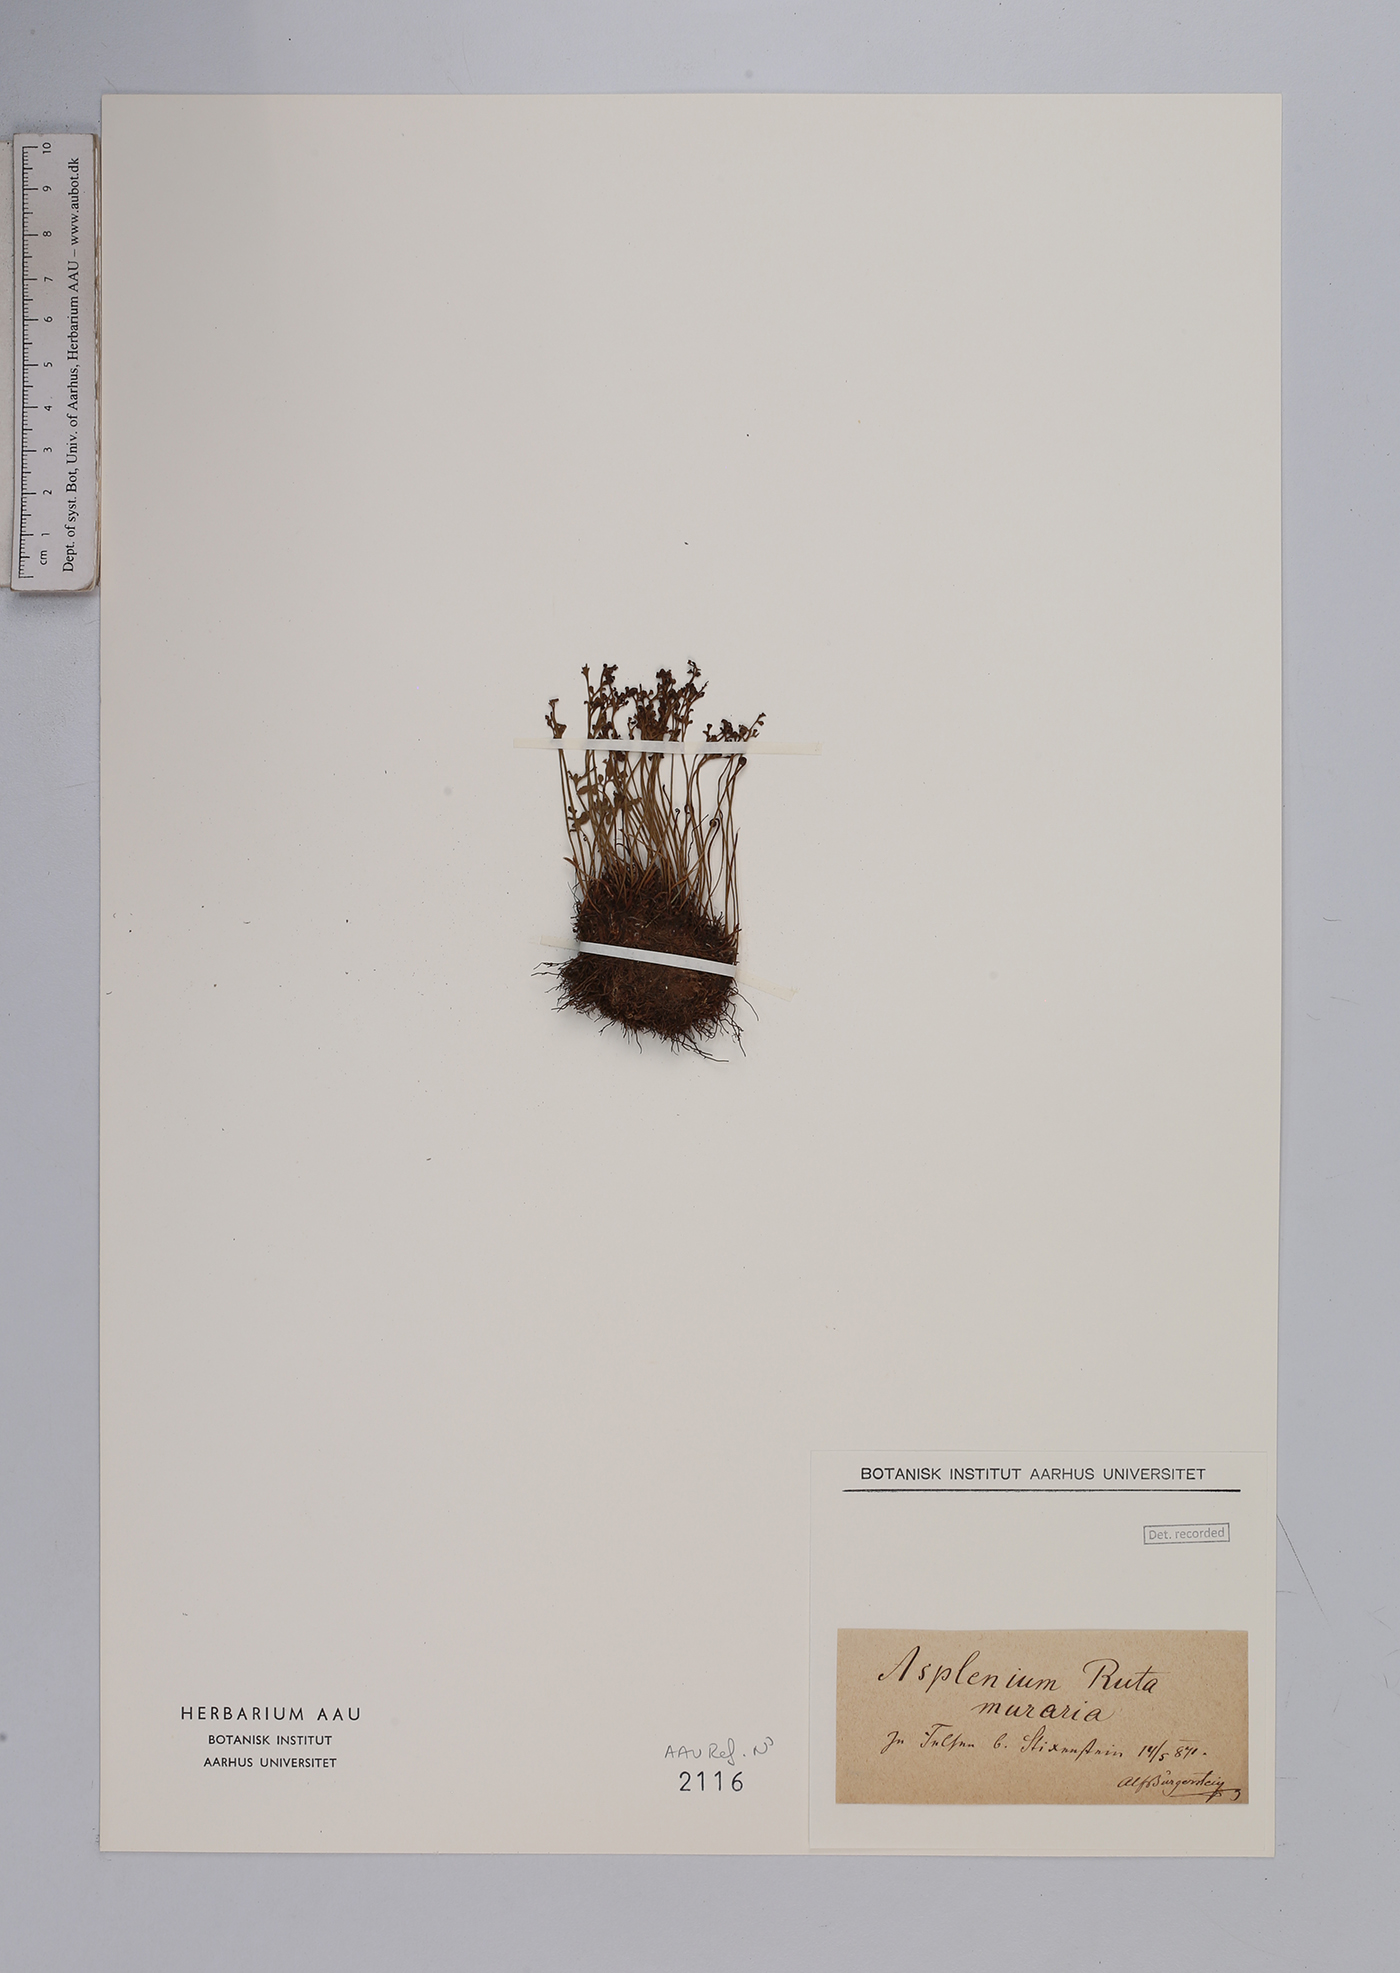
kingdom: Plantae
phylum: Tracheophyta
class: Polypodiopsida
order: Polypodiales
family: Aspleniaceae
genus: Asplenium
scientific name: Asplenium ruta-muraria
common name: Wall-rue
